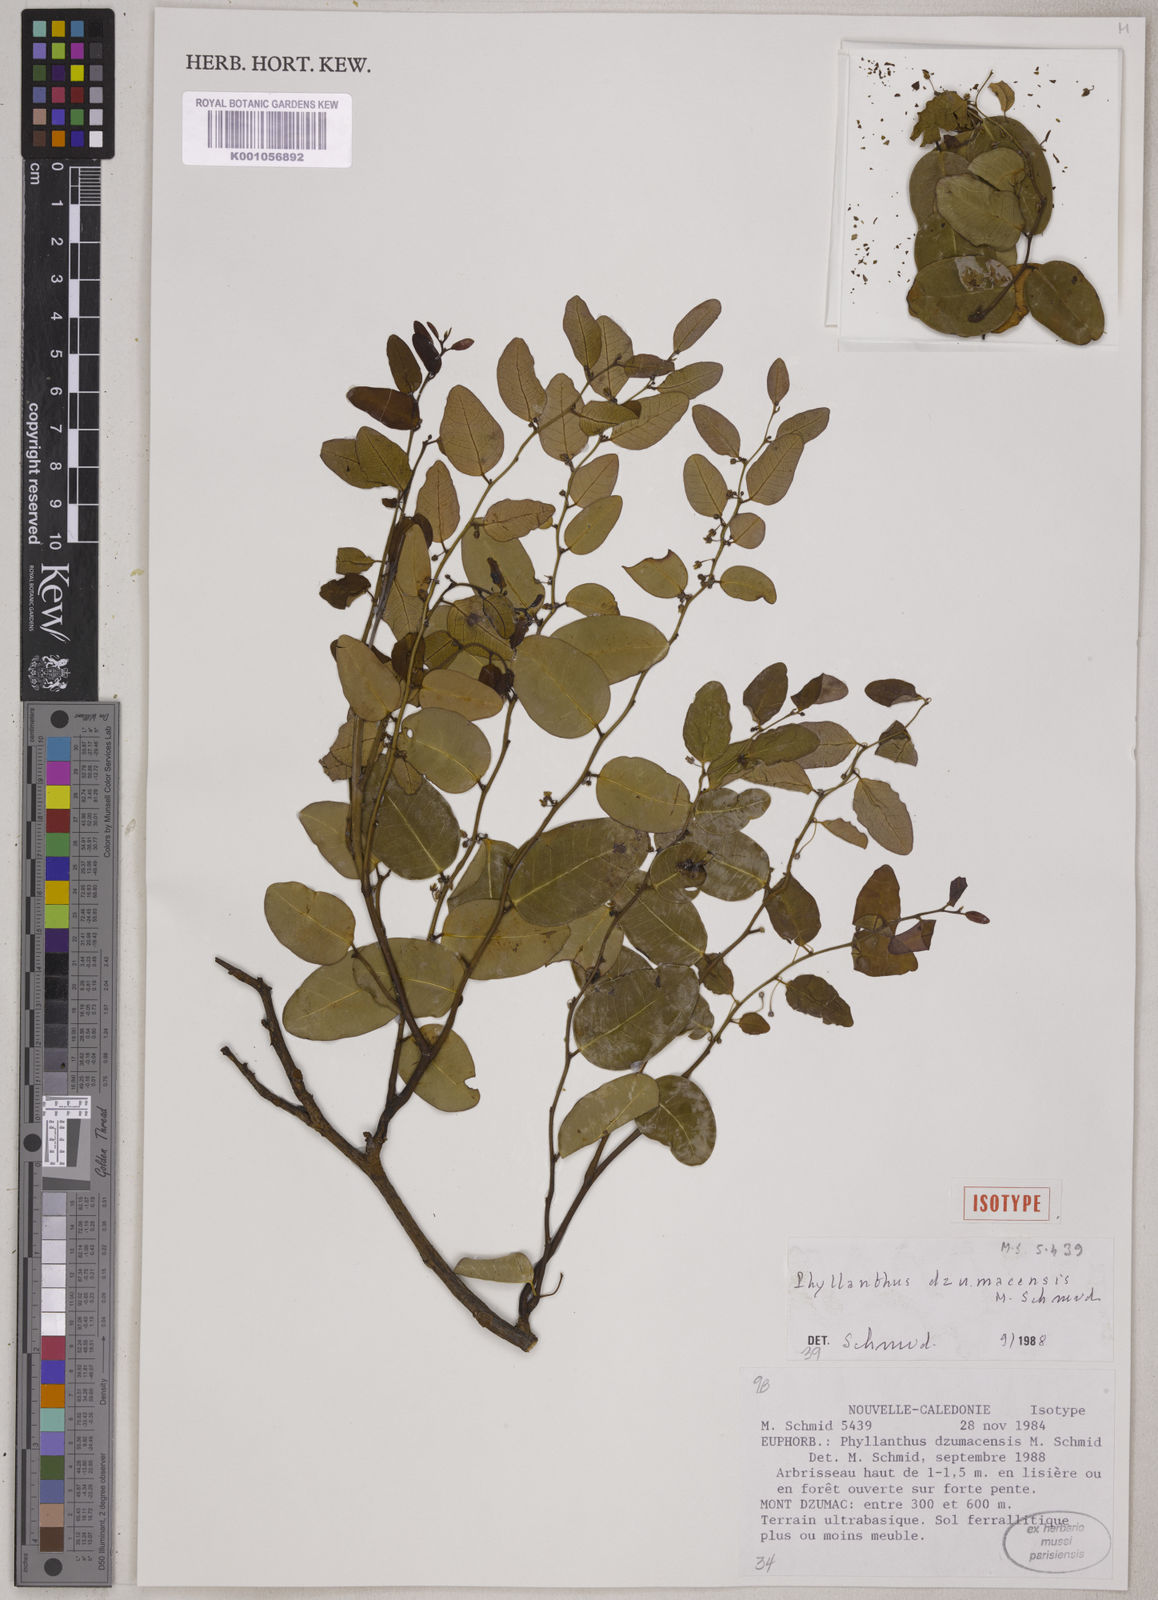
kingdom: Plantae
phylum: Tracheophyta
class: Magnoliopsida
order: Malpighiales
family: Phyllanthaceae
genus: Phyllanthus
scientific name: Phyllanthus dzumacensis
